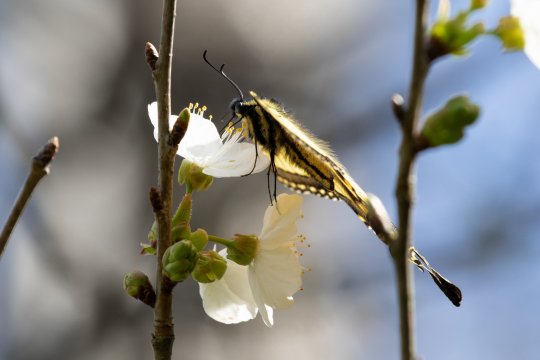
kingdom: Animalia
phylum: Arthropoda
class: Insecta
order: Lepidoptera
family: Papilionidae
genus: Pterourus
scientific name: Pterourus glaucus
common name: Eastern Tiger Swallowtail
